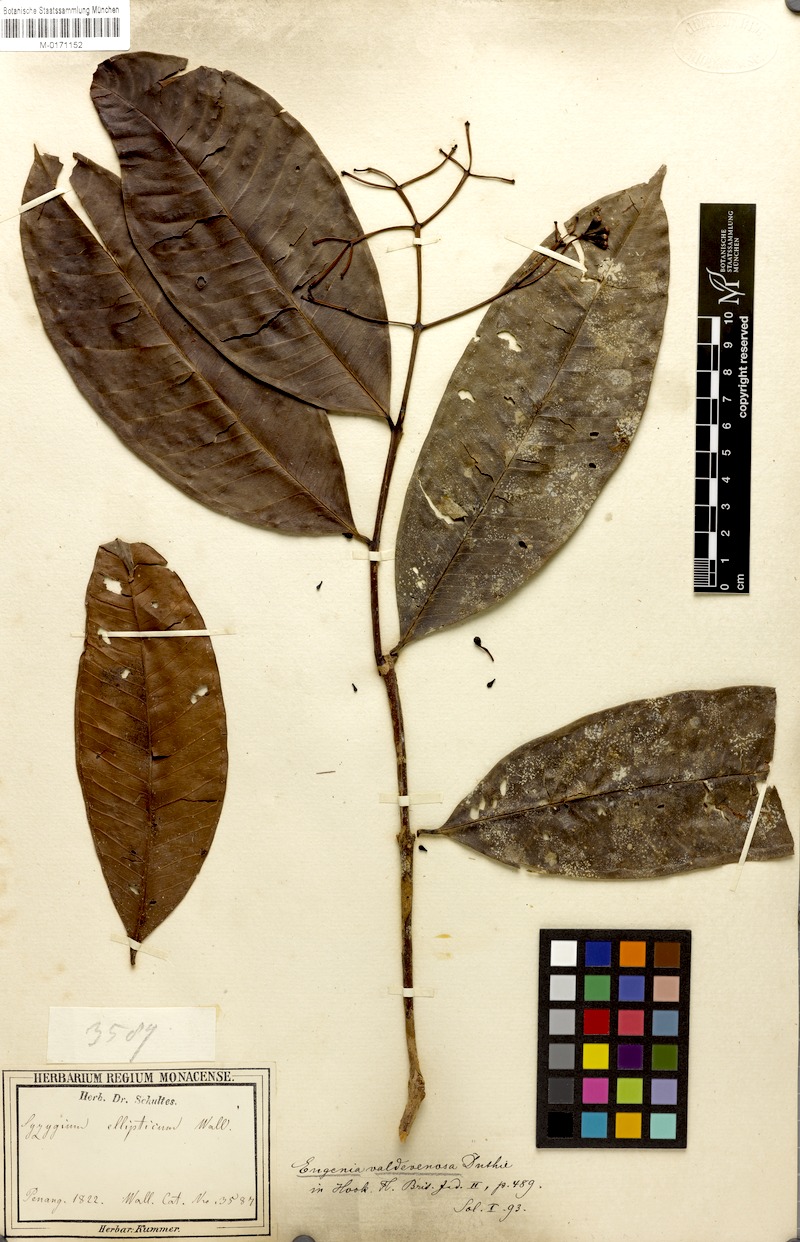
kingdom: Plantae
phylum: Tracheophyta
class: Magnoliopsida
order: Myrtales
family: Myrtaceae
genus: Syzygium
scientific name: Syzygium valdevenosum
